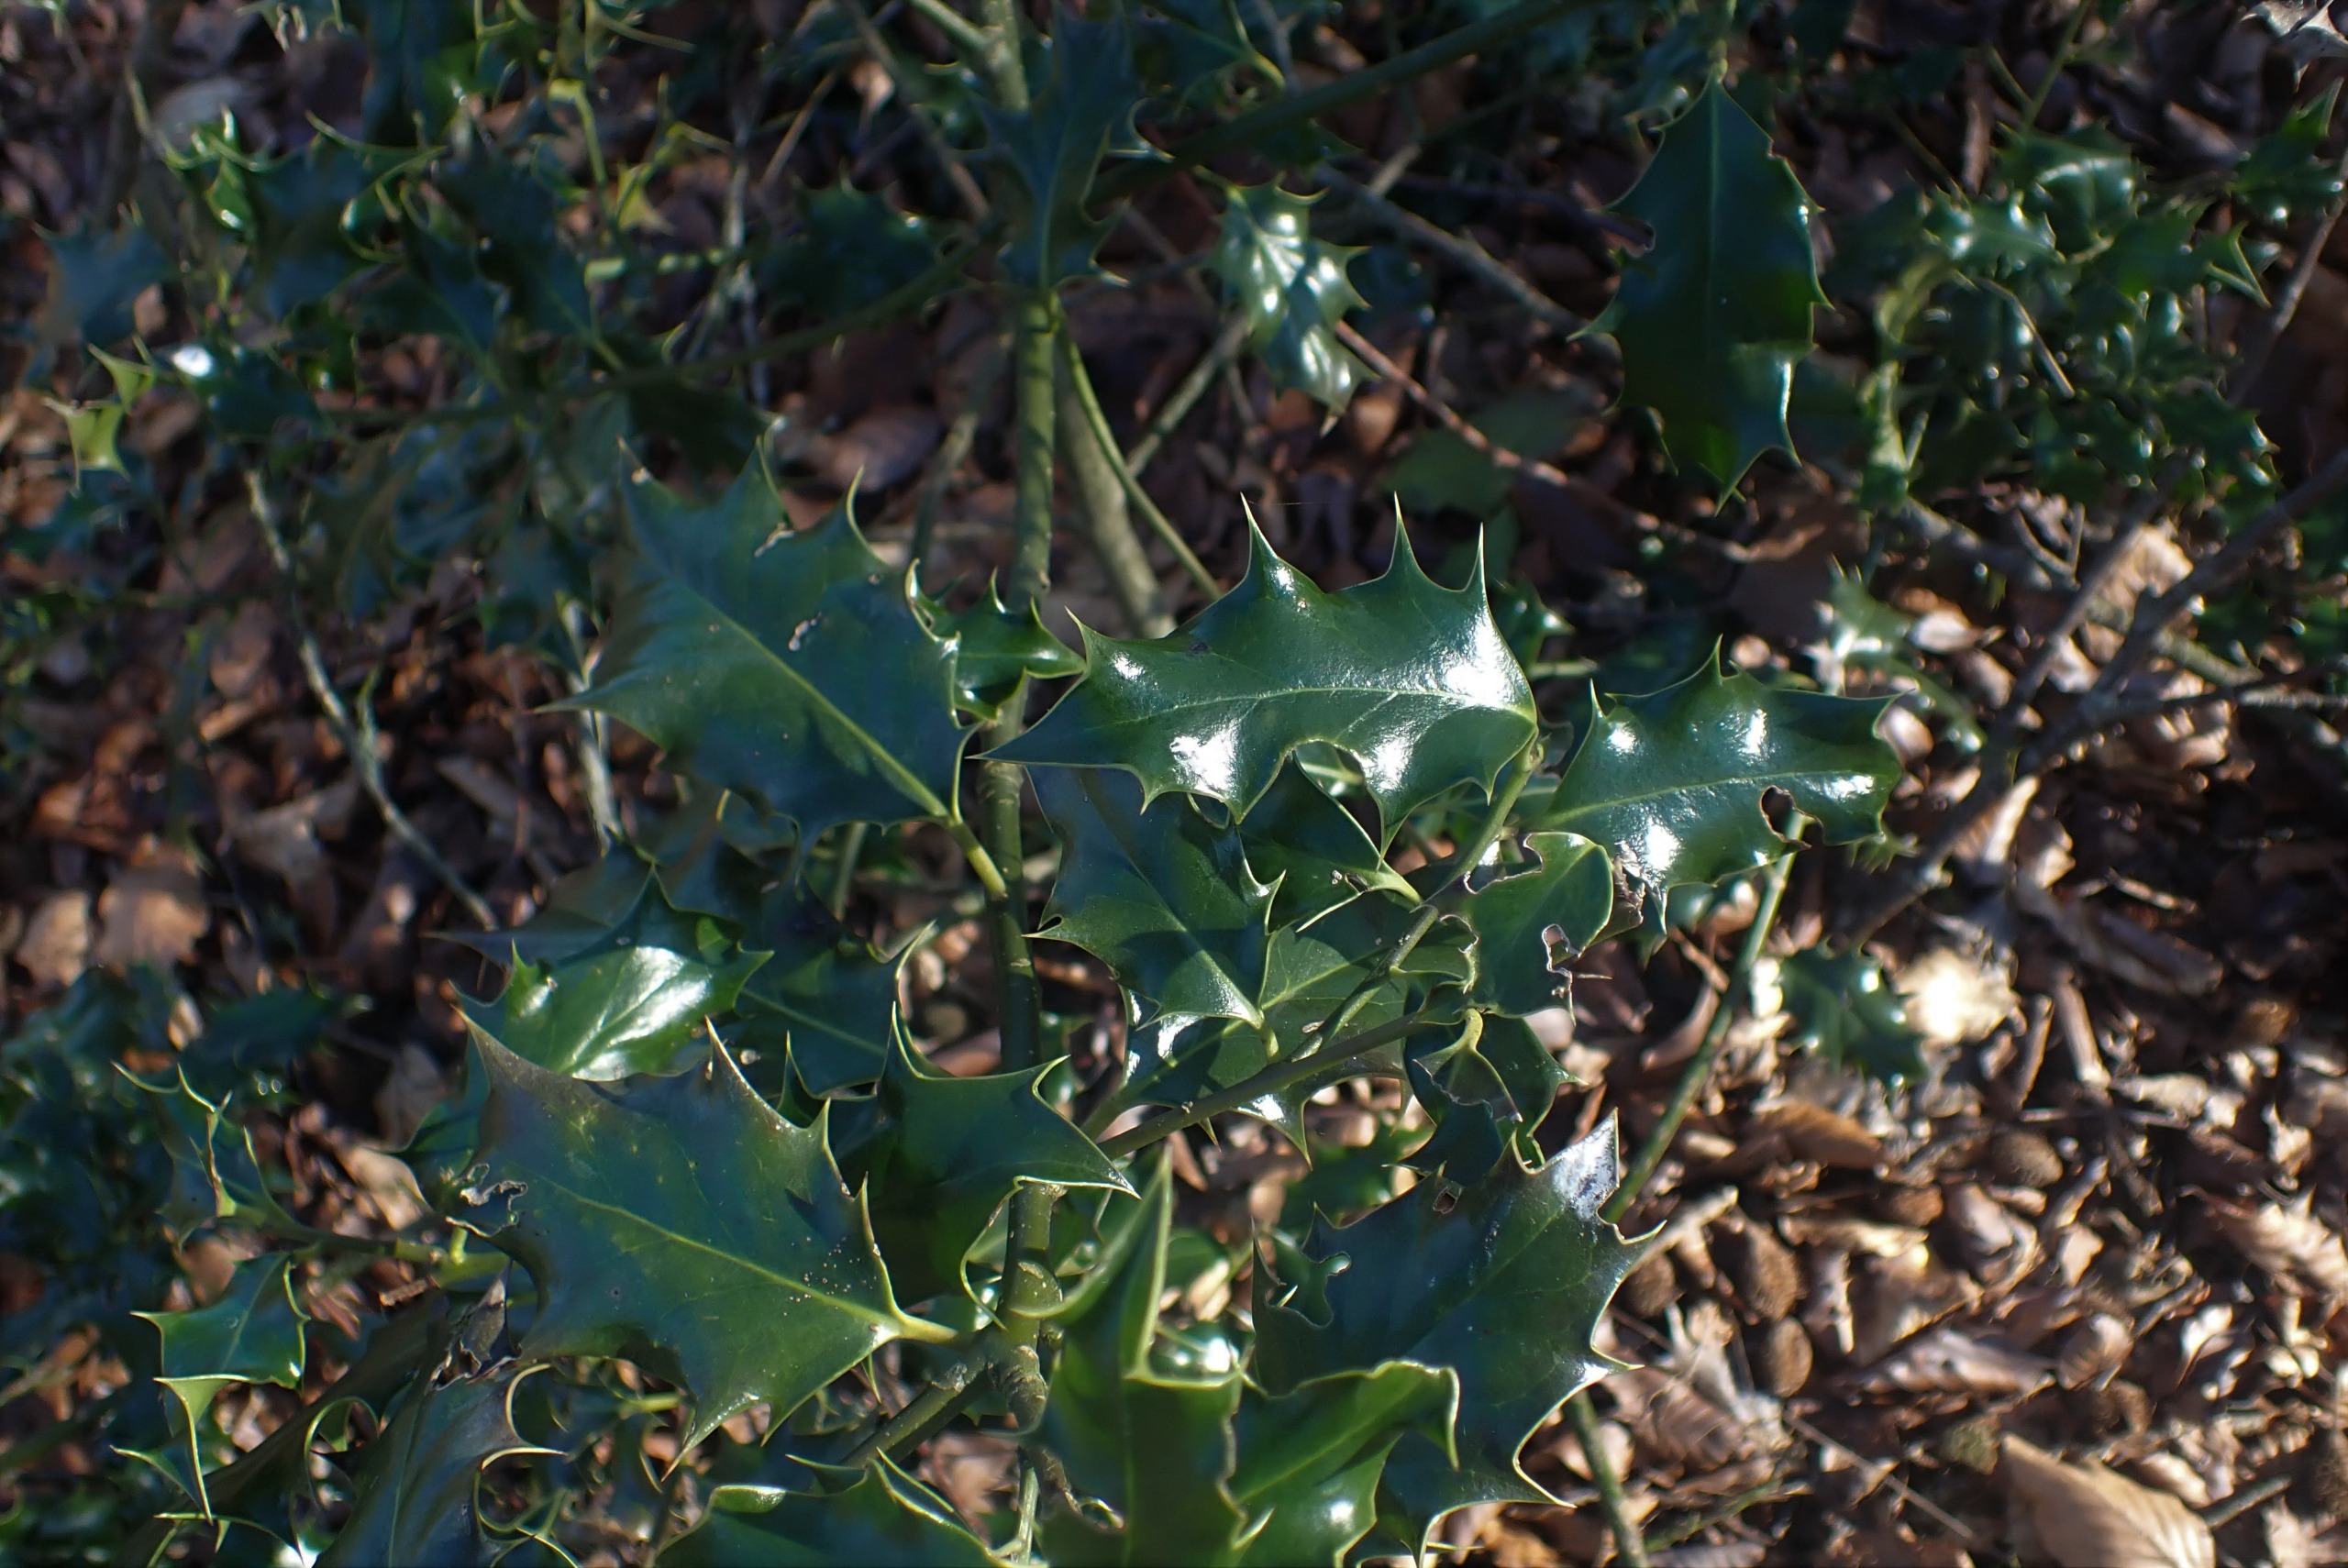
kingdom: Plantae
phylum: Tracheophyta
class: Magnoliopsida
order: Aquifoliales
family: Aquifoliaceae
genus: Ilex
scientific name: Ilex aquifolium
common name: Kristtorn
